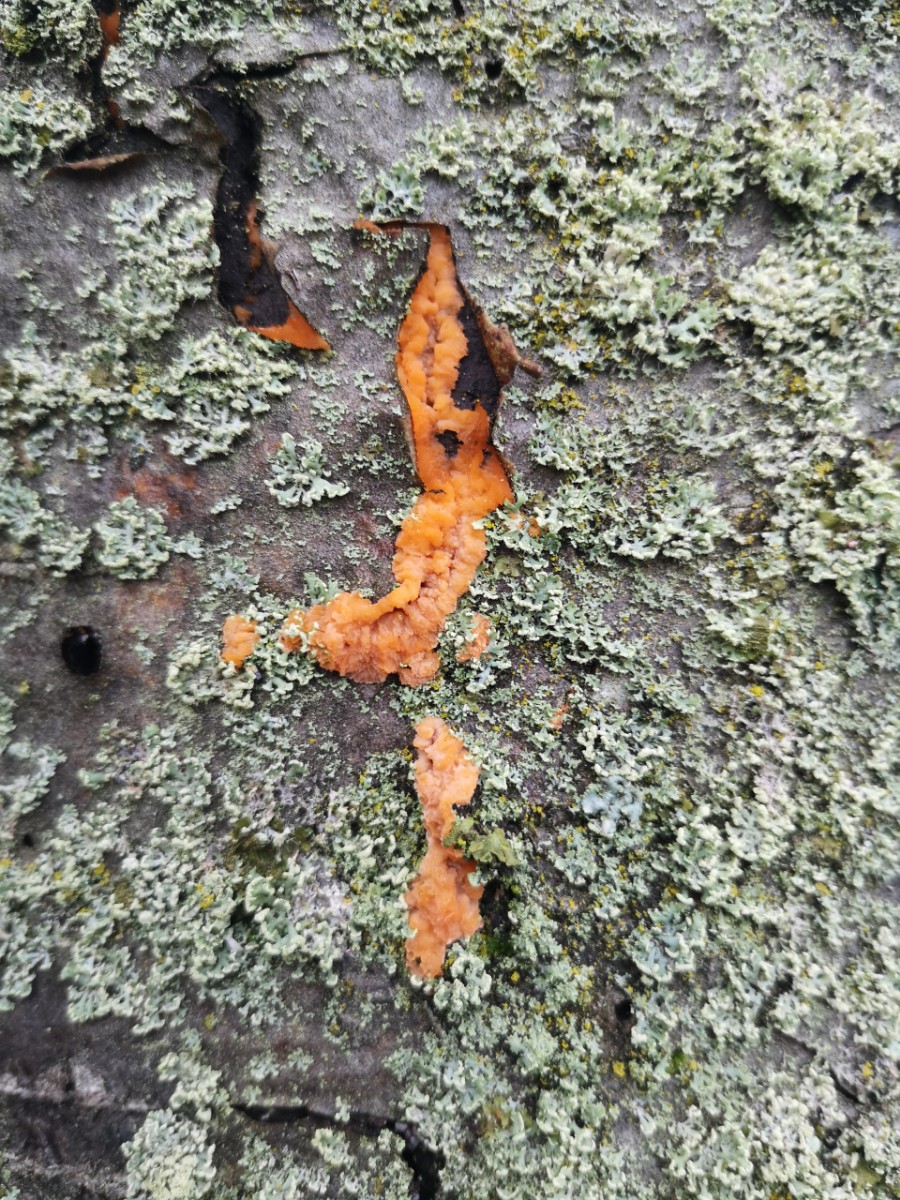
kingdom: Fungi
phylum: Basidiomycota
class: Agaricomycetes
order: Polyporales
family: Meruliaceae
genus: Phlebia
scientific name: Phlebia radiata
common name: stråle-åresvamp
